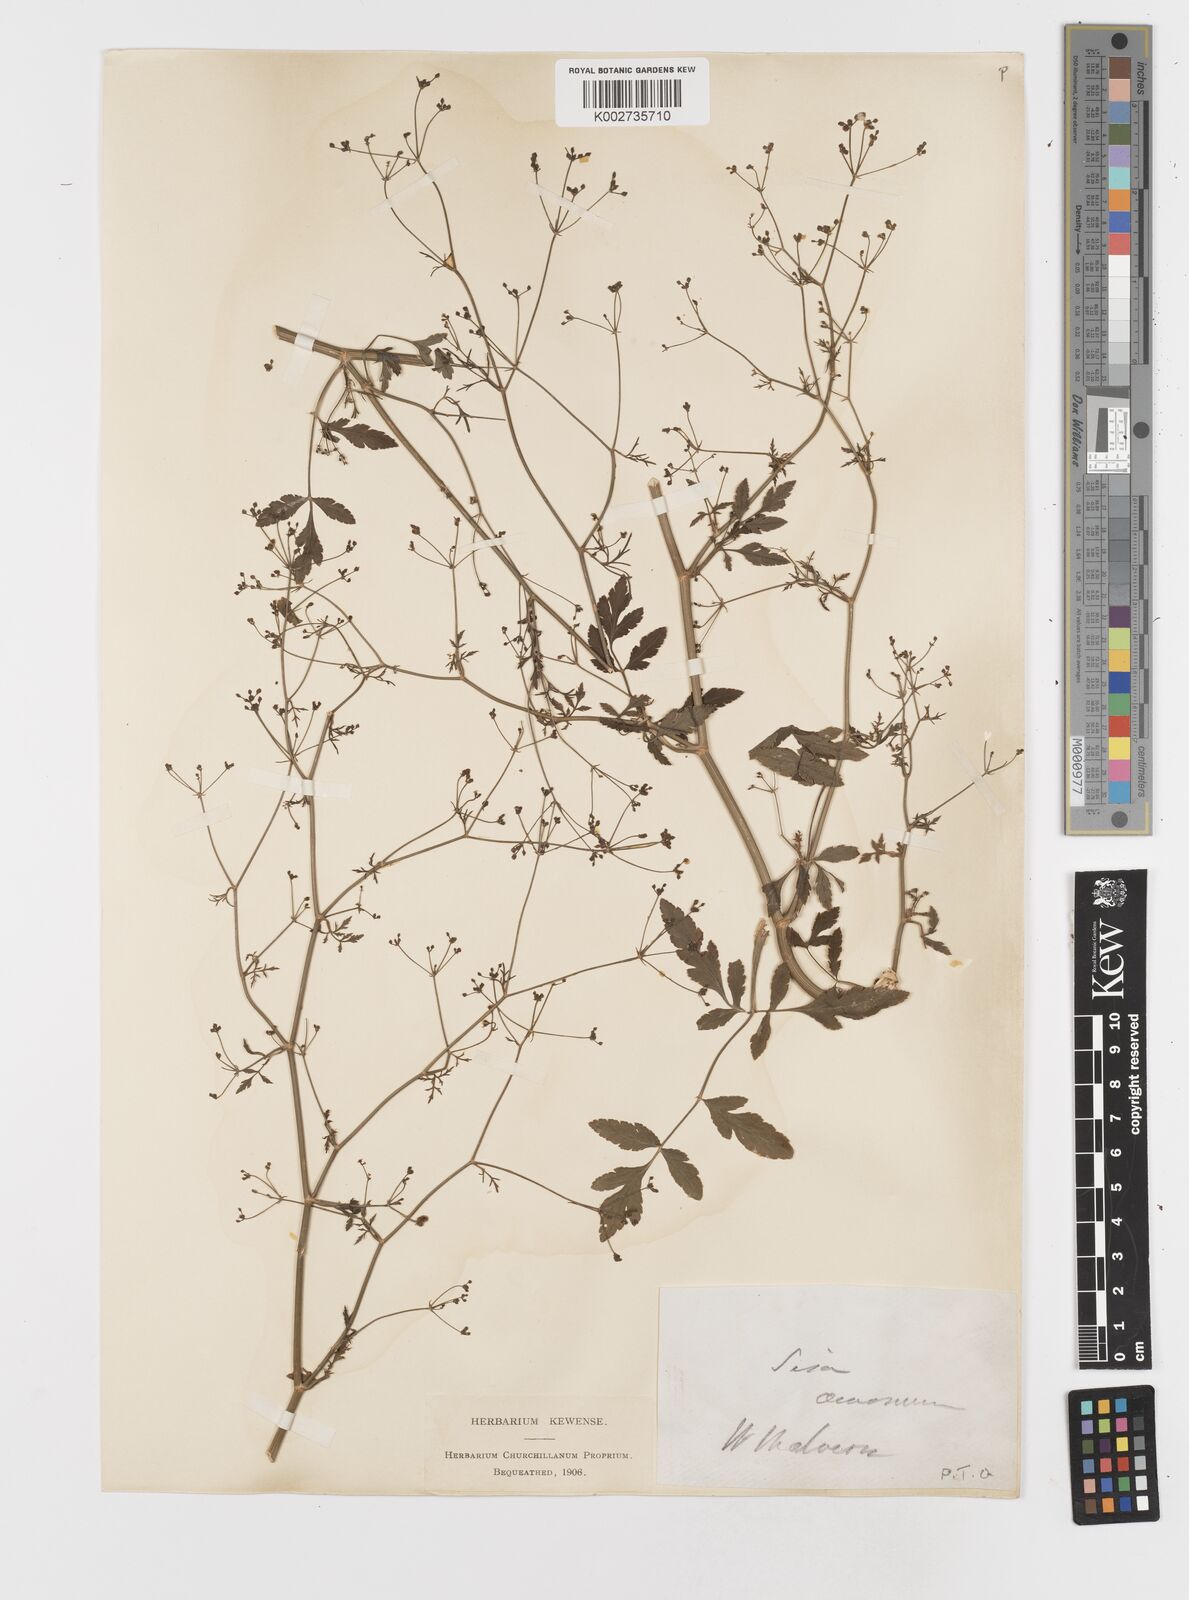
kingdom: Plantae
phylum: Tracheophyta
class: Magnoliopsida
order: Apiales
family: Apiaceae
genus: Sison
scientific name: Sison amomum
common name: Stone-parsley
